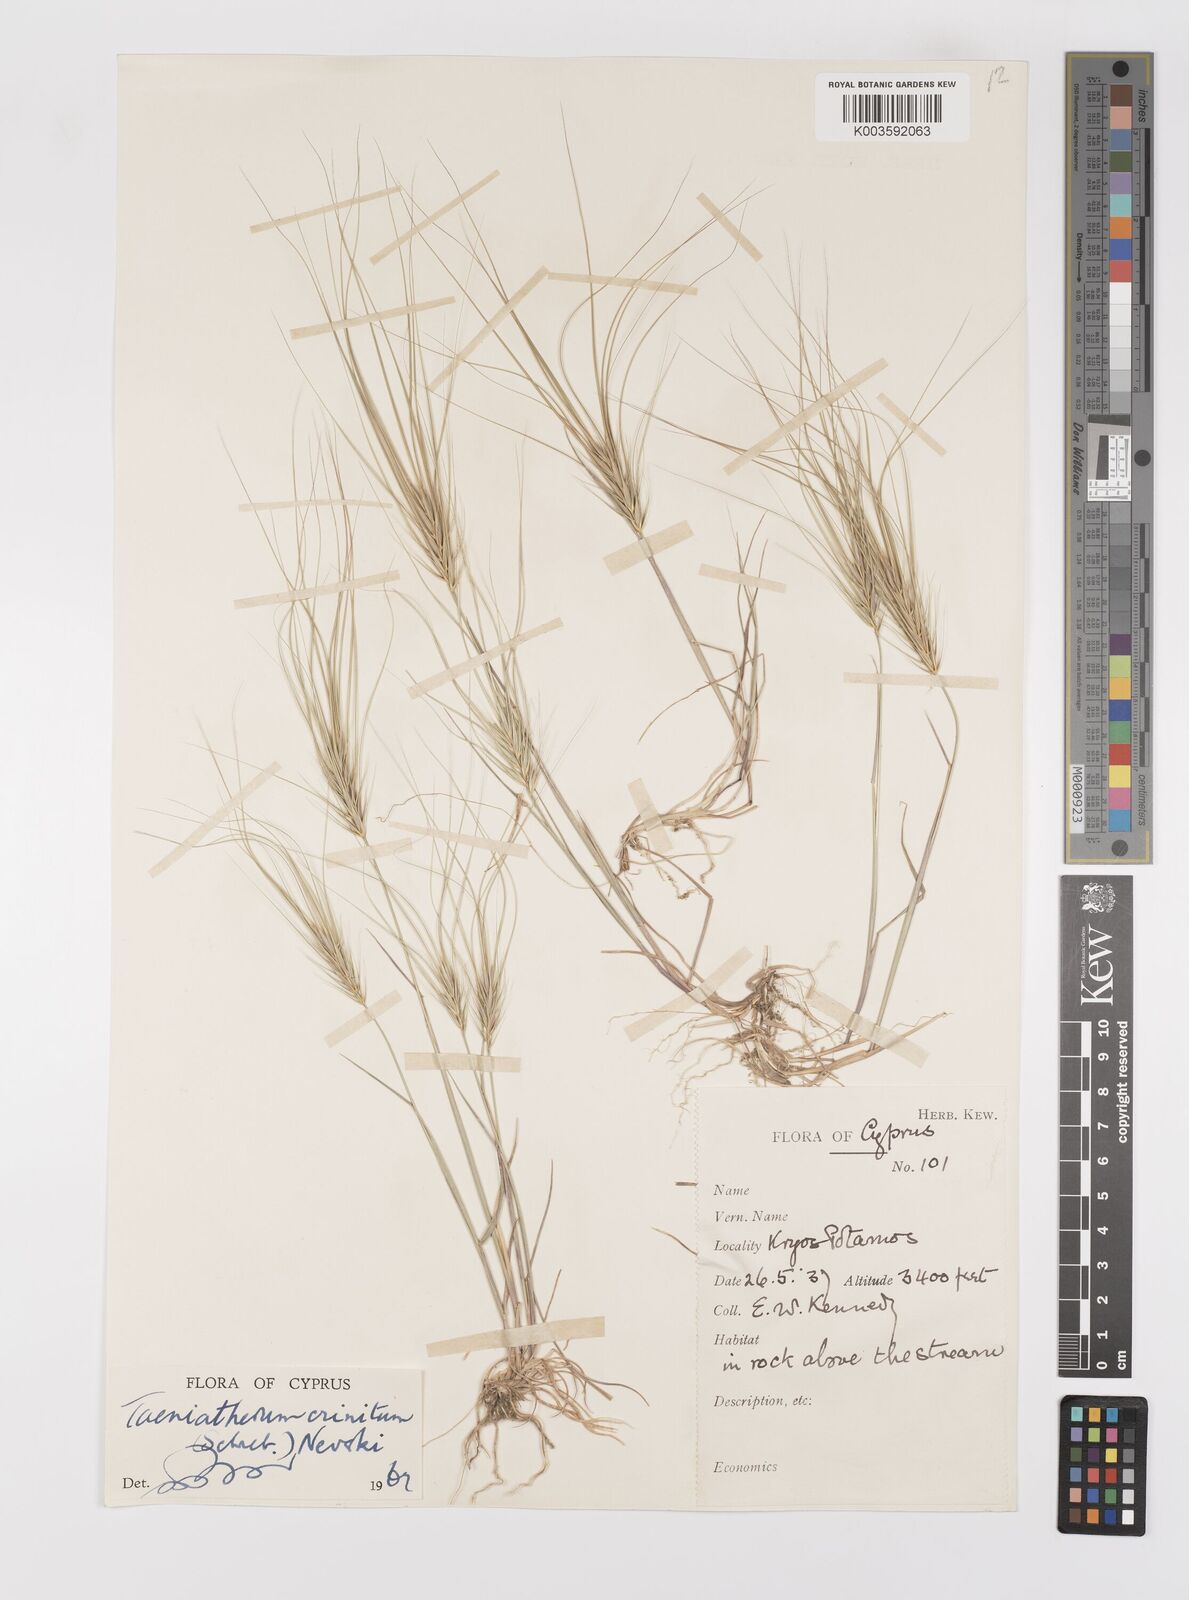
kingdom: Plantae
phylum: Tracheophyta
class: Liliopsida
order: Poales
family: Poaceae
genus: Taeniatherum
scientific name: Taeniatherum caput-medusae
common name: Medusahead
